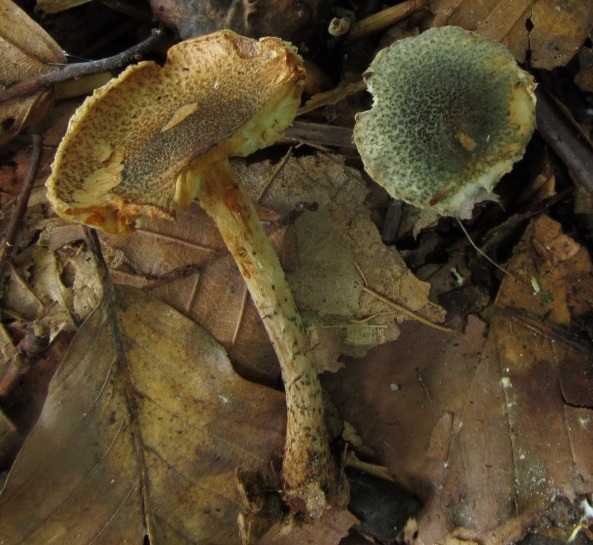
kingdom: Fungi
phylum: Basidiomycota
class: Agaricomycetes
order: Agaricales
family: Agaricaceae
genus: Lepiota
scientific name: Lepiota grangei
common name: grønskællet parasolhat
